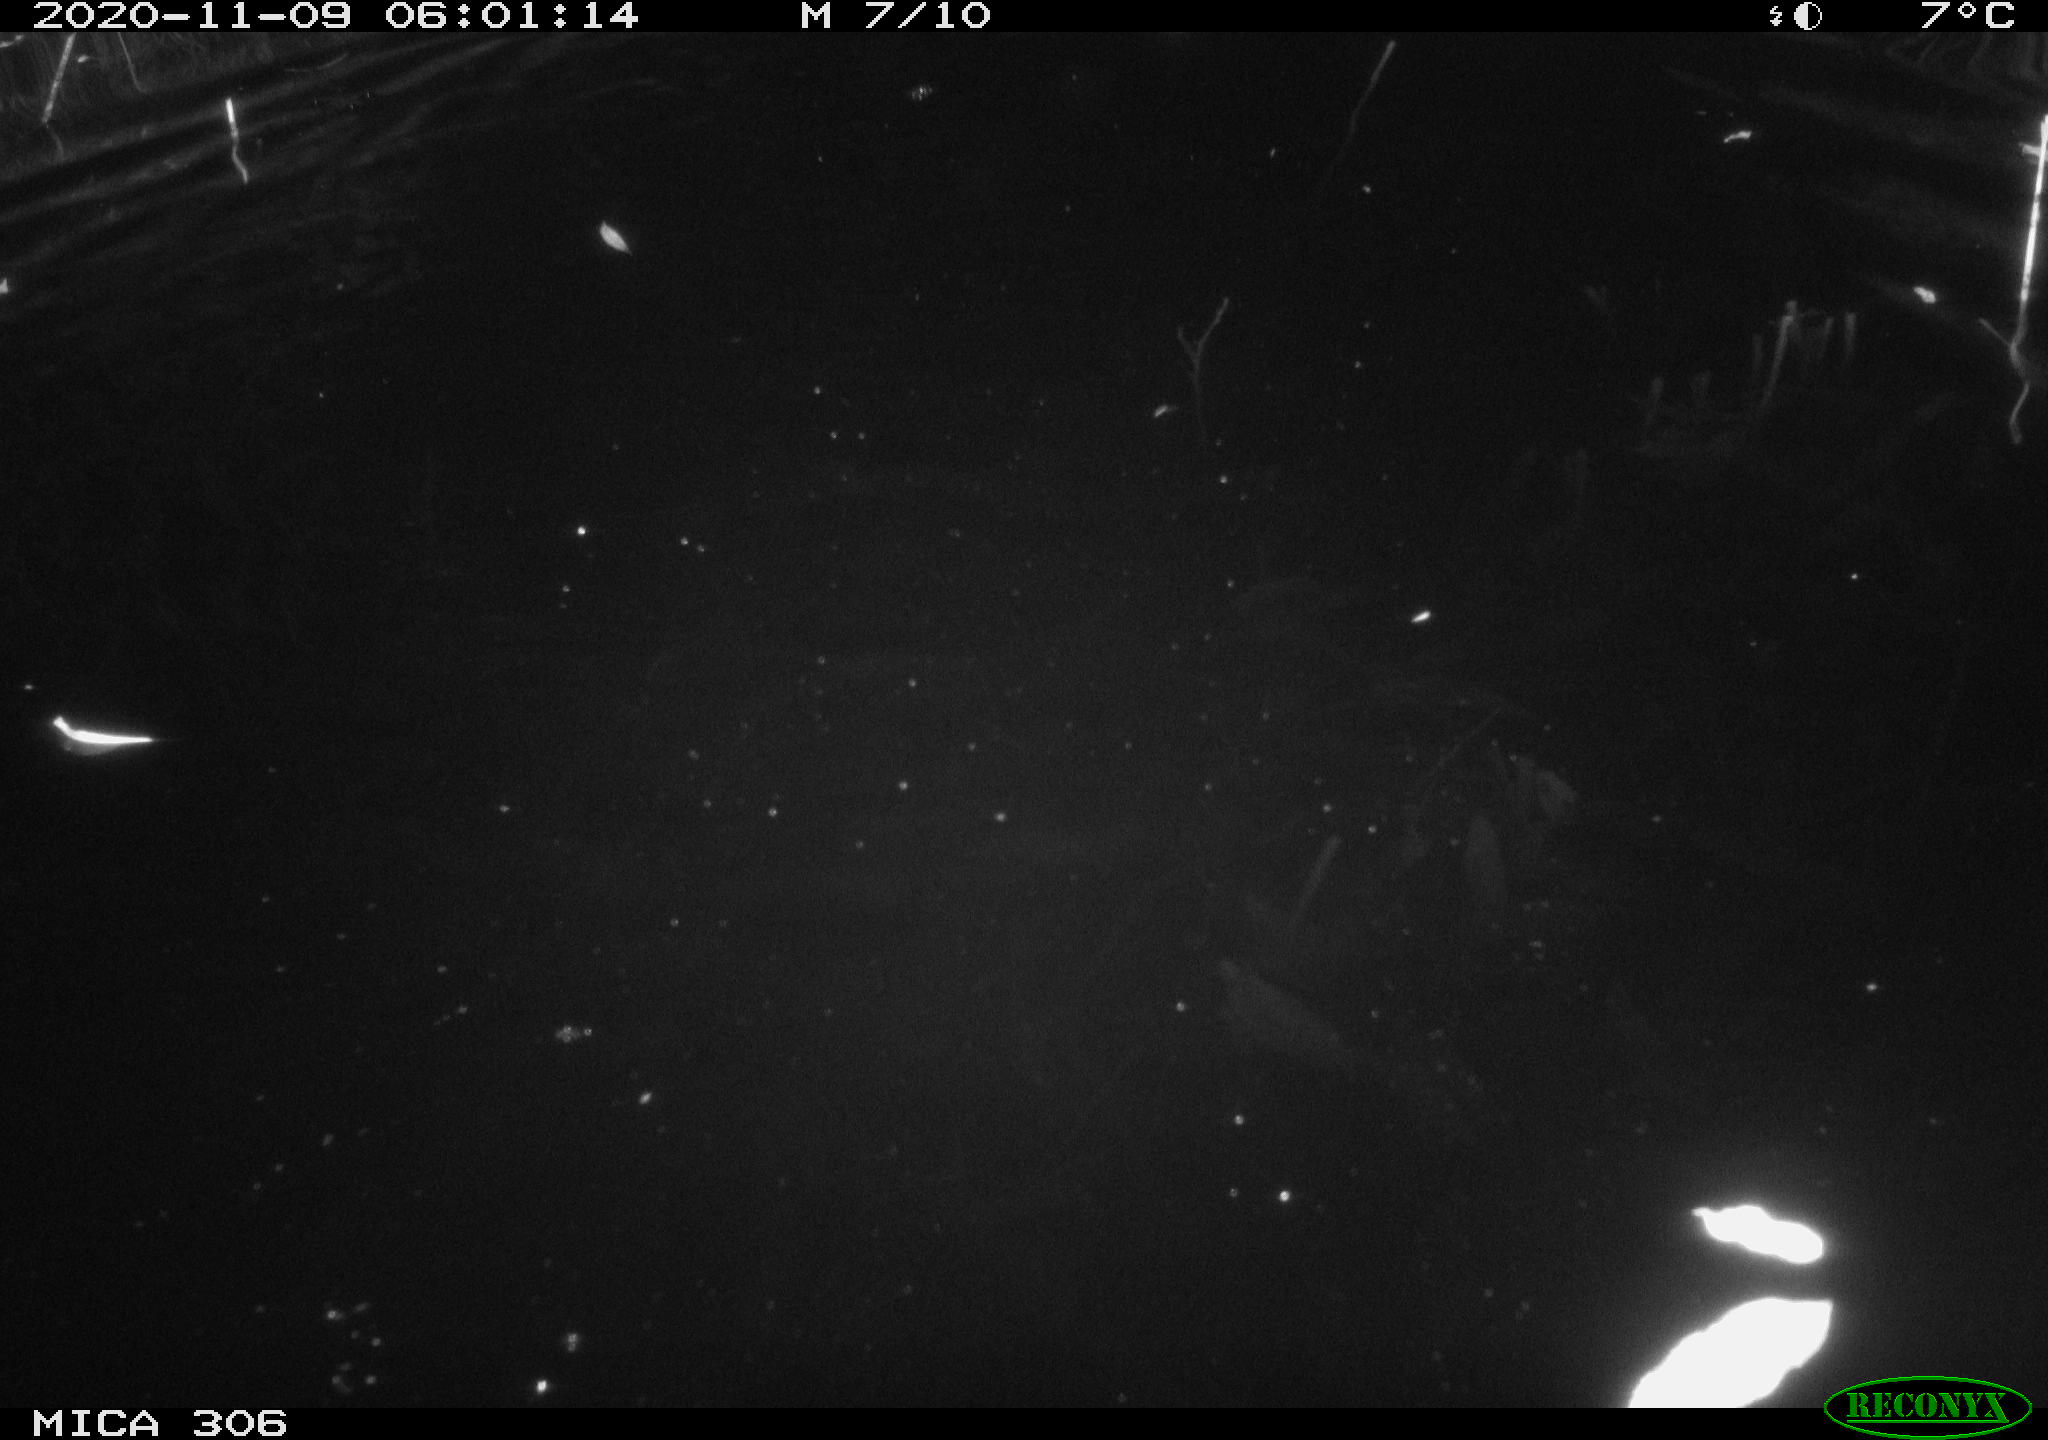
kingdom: Animalia
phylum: Chordata
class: Mammalia
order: Rodentia
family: Cricetidae
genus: Ondatra
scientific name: Ondatra zibethicus
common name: Muskrat
